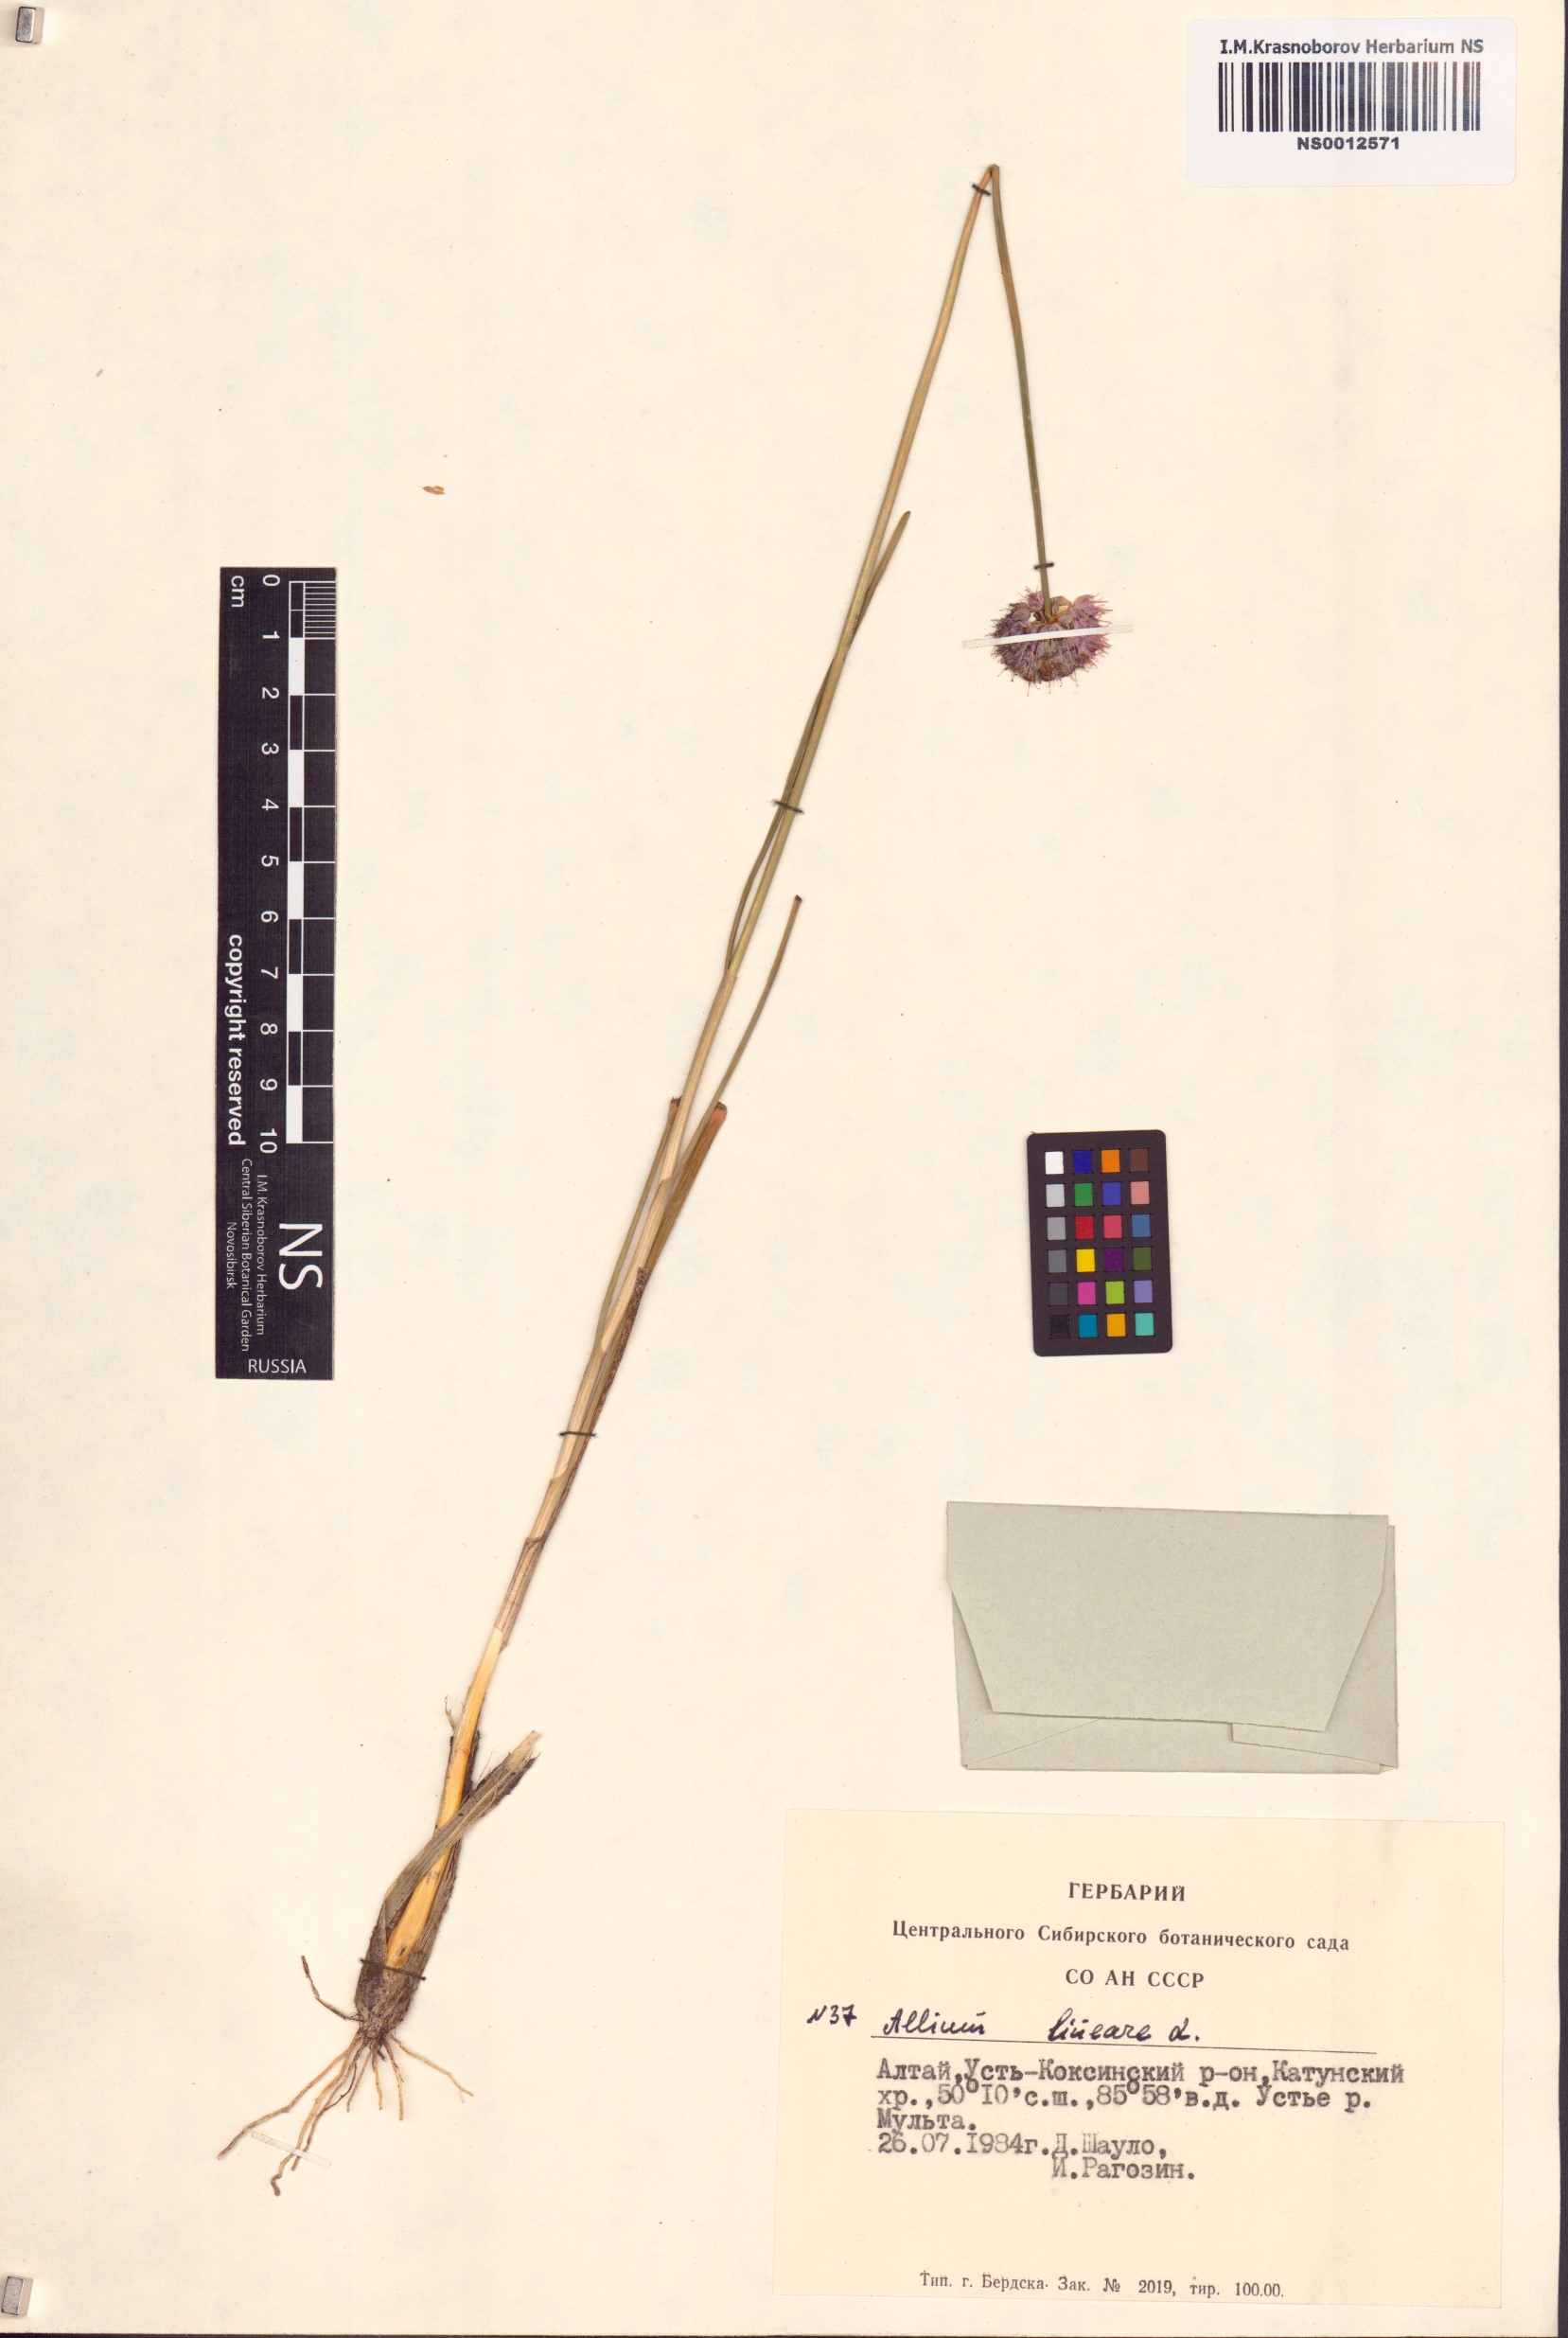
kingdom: Plantae
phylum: Tracheophyta
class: Liliopsida
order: Asparagales
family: Amaryllidaceae
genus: Allium
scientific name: Allium lineare
